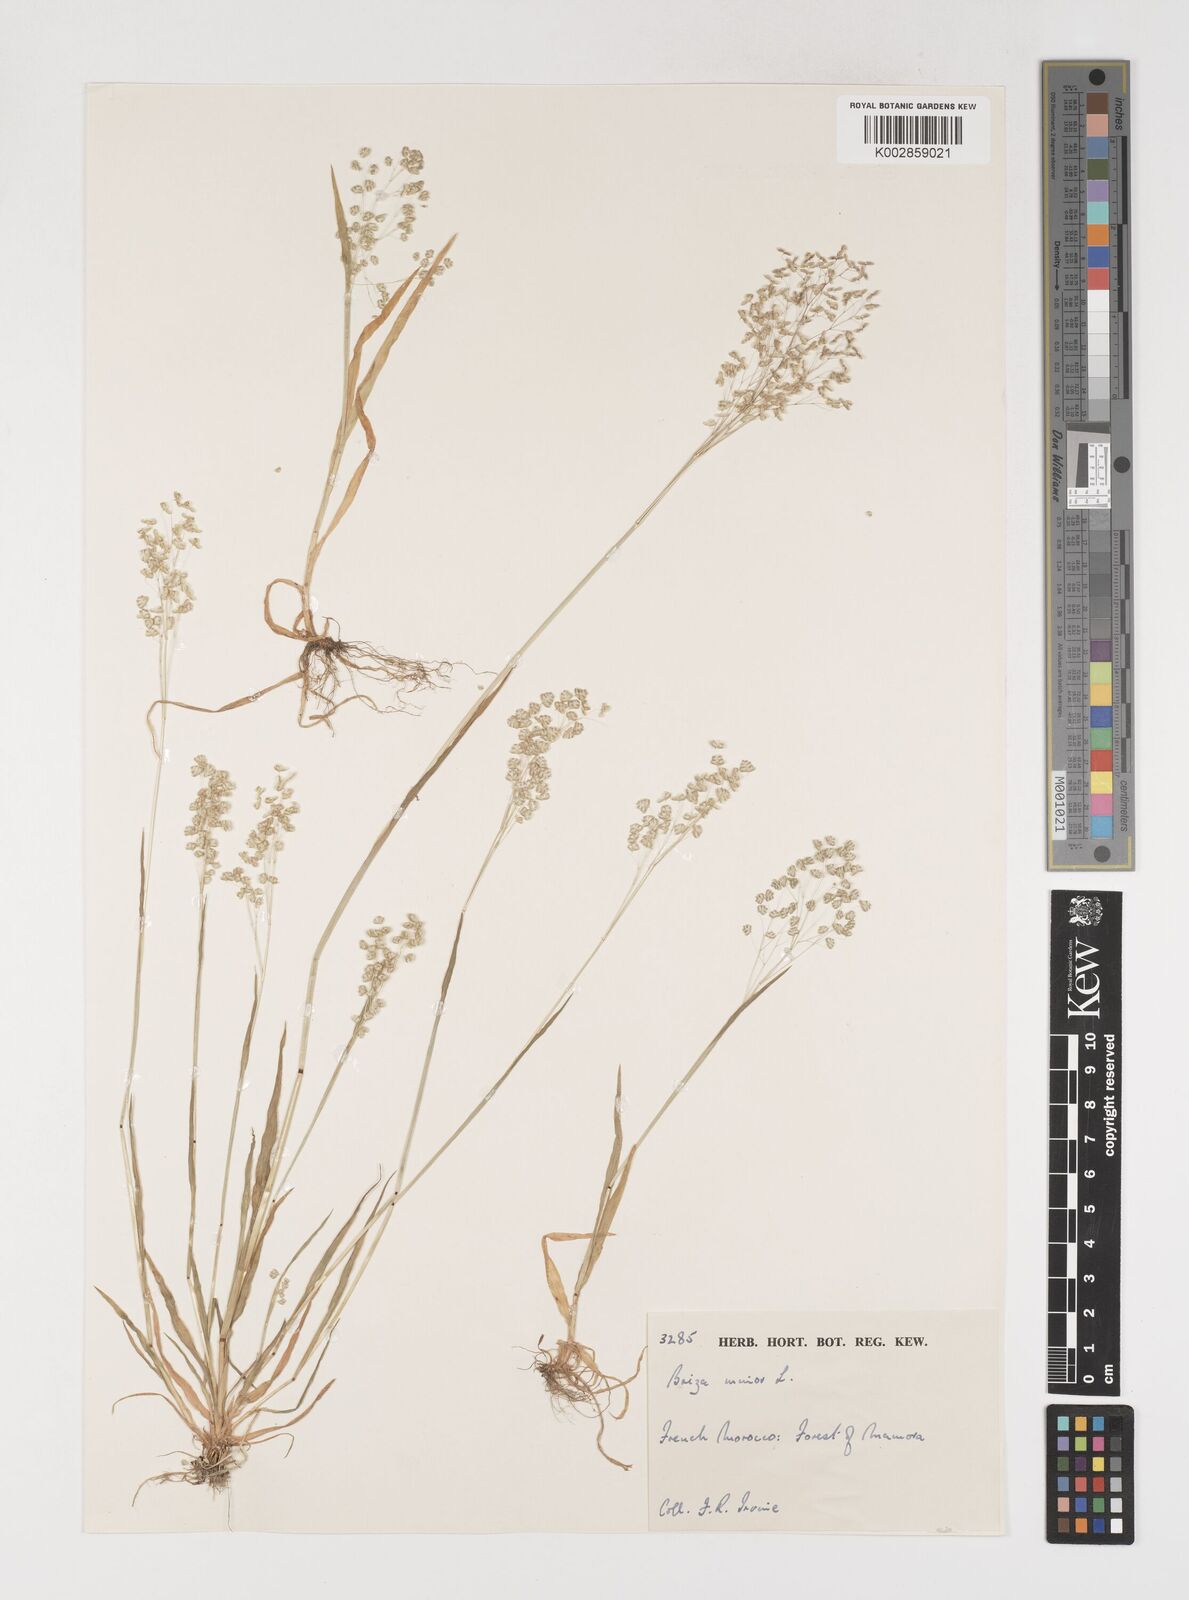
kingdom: Plantae
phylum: Tracheophyta
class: Liliopsida
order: Poales
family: Poaceae
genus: Briza
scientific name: Briza minor
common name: Lesser quaking-grass
